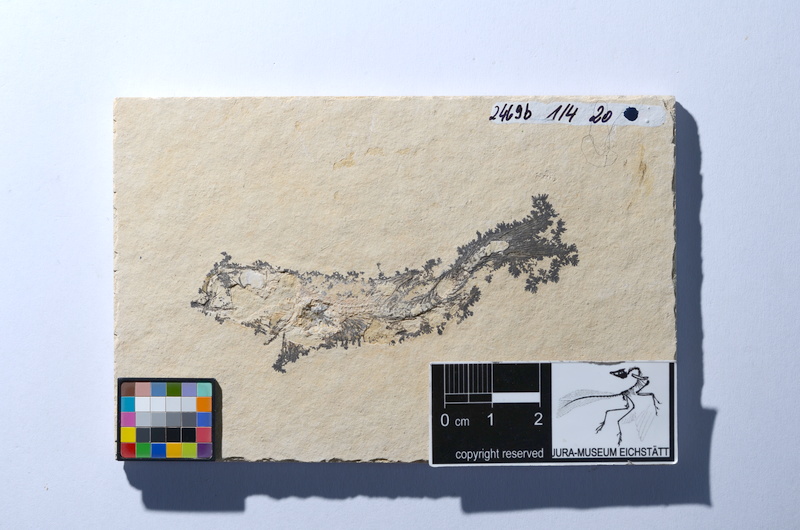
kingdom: Animalia
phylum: Chordata
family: Ascalaboidae
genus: Tharsis
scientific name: Tharsis dubius
